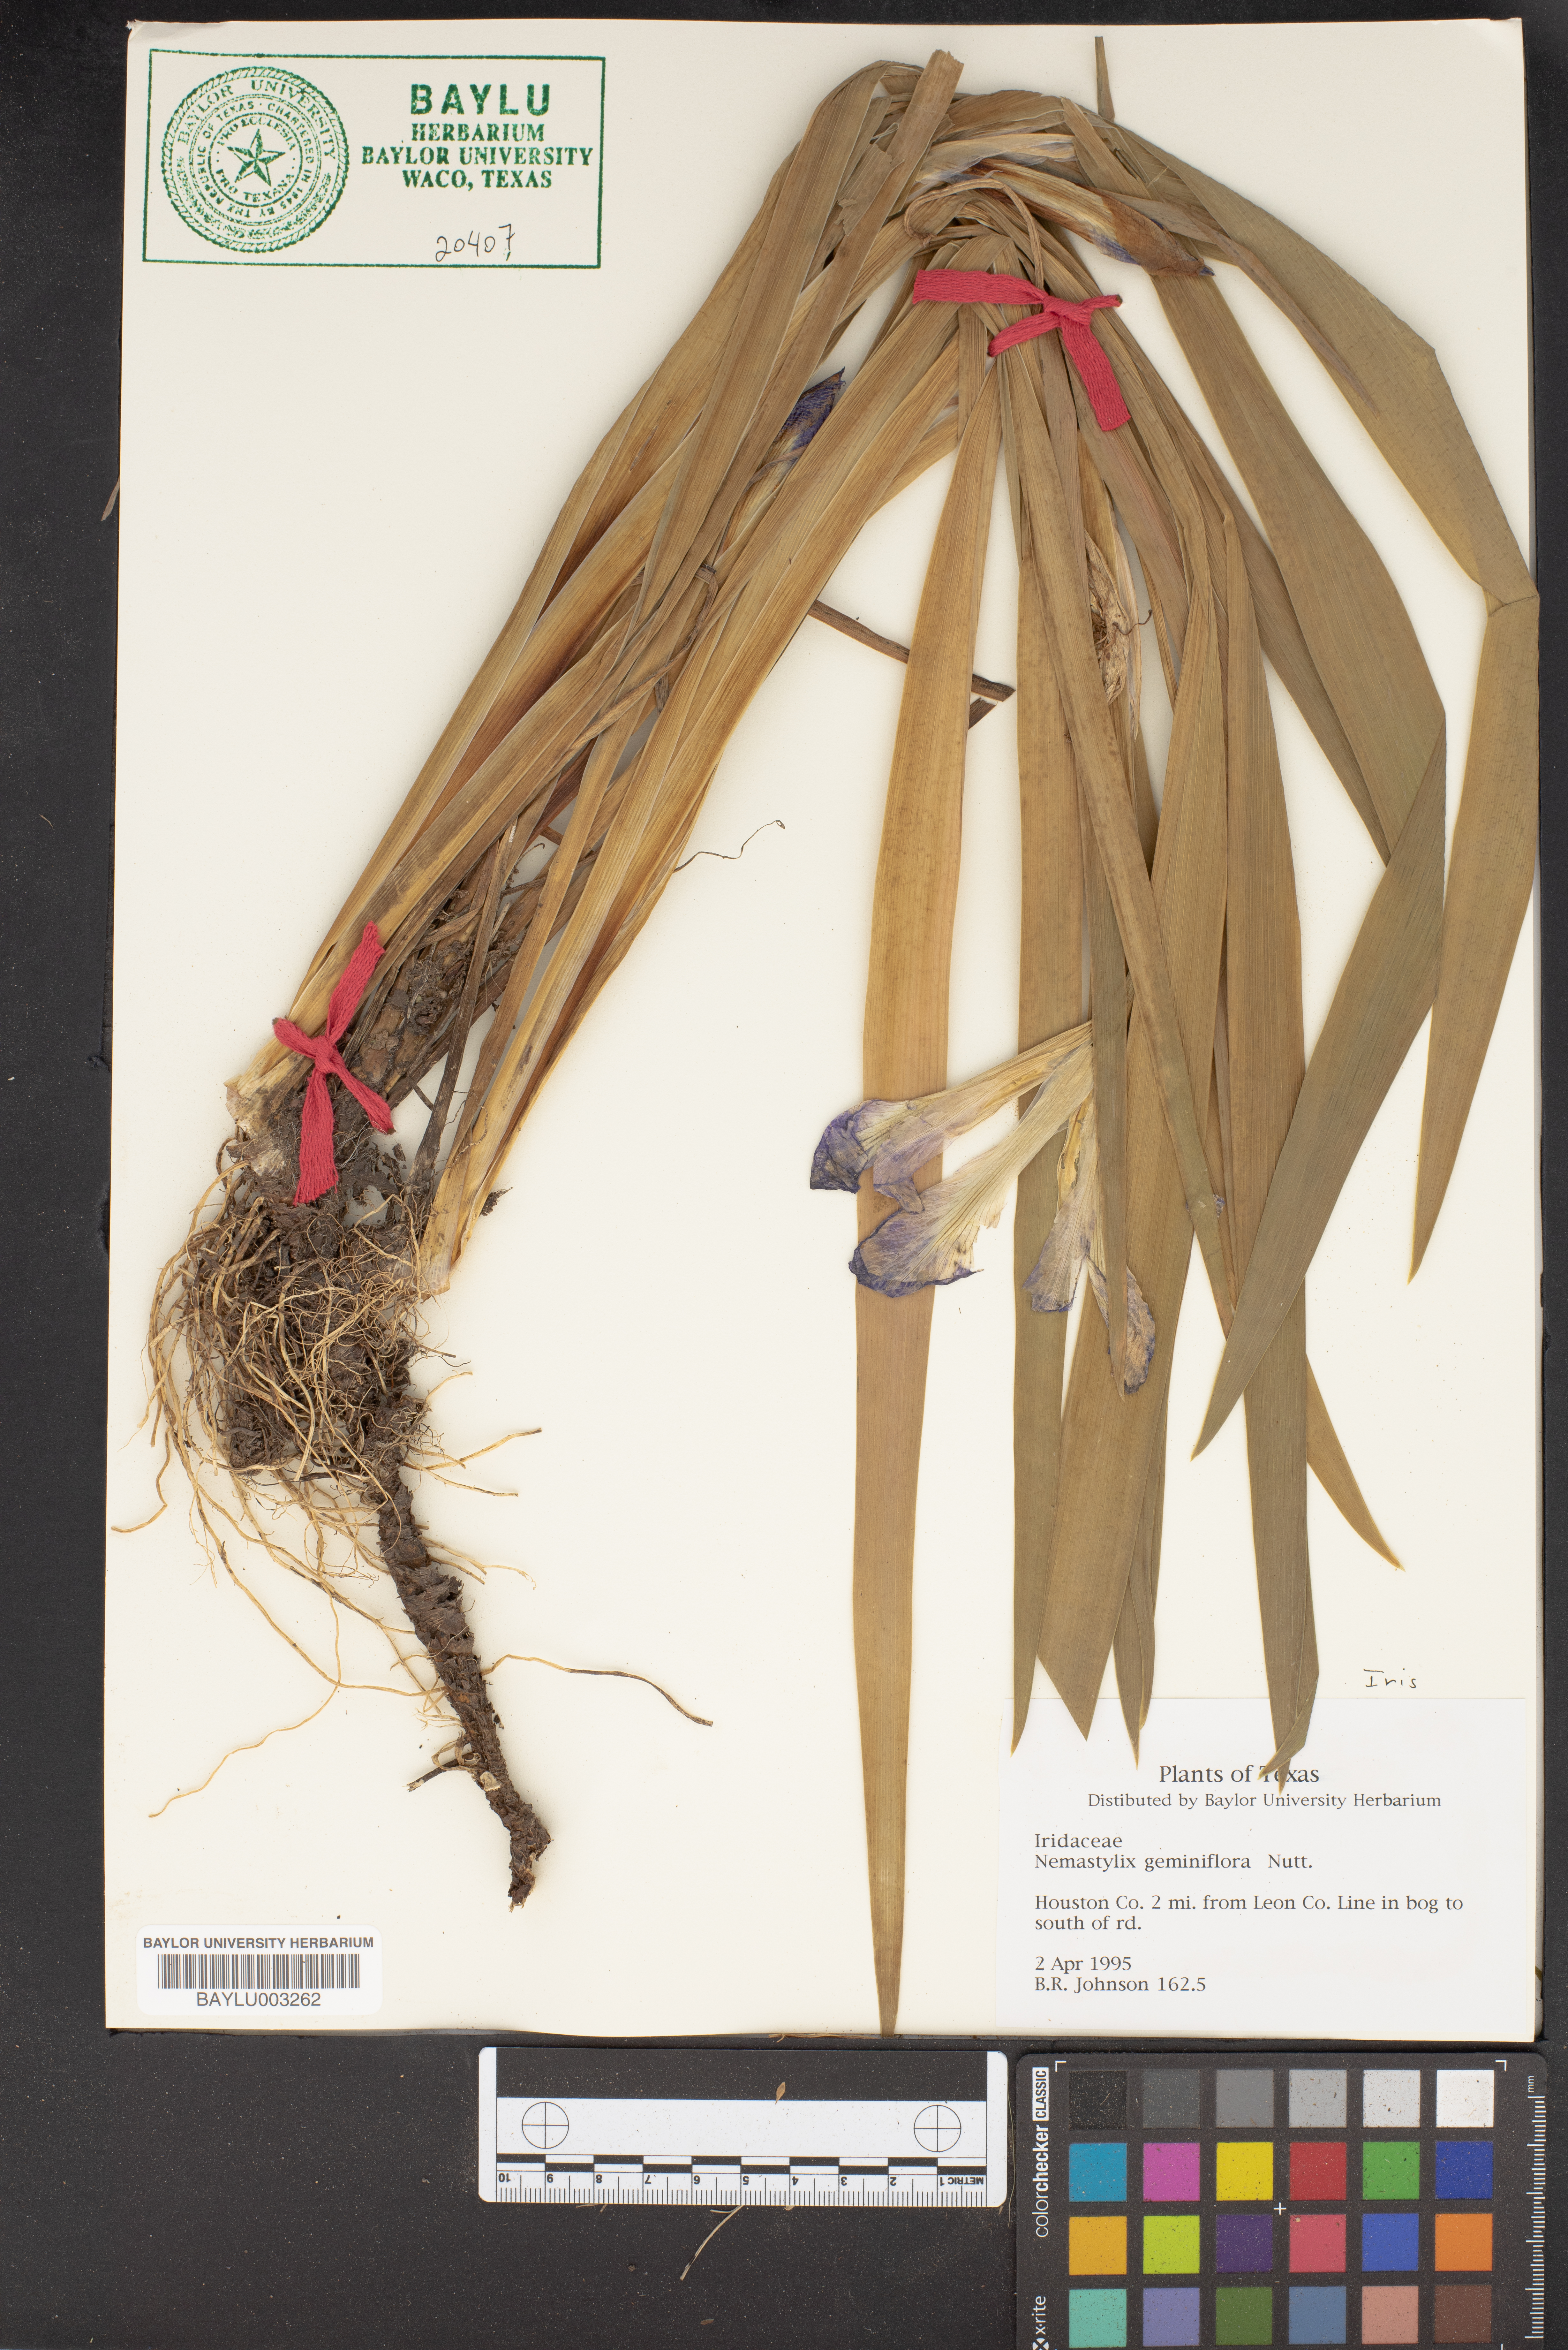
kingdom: Plantae
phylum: Tracheophyta
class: Liliopsida
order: Asparagales
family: Iridaceae
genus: Nemastylis
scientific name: Nemastylis geminiflora
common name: Prairie celestial
